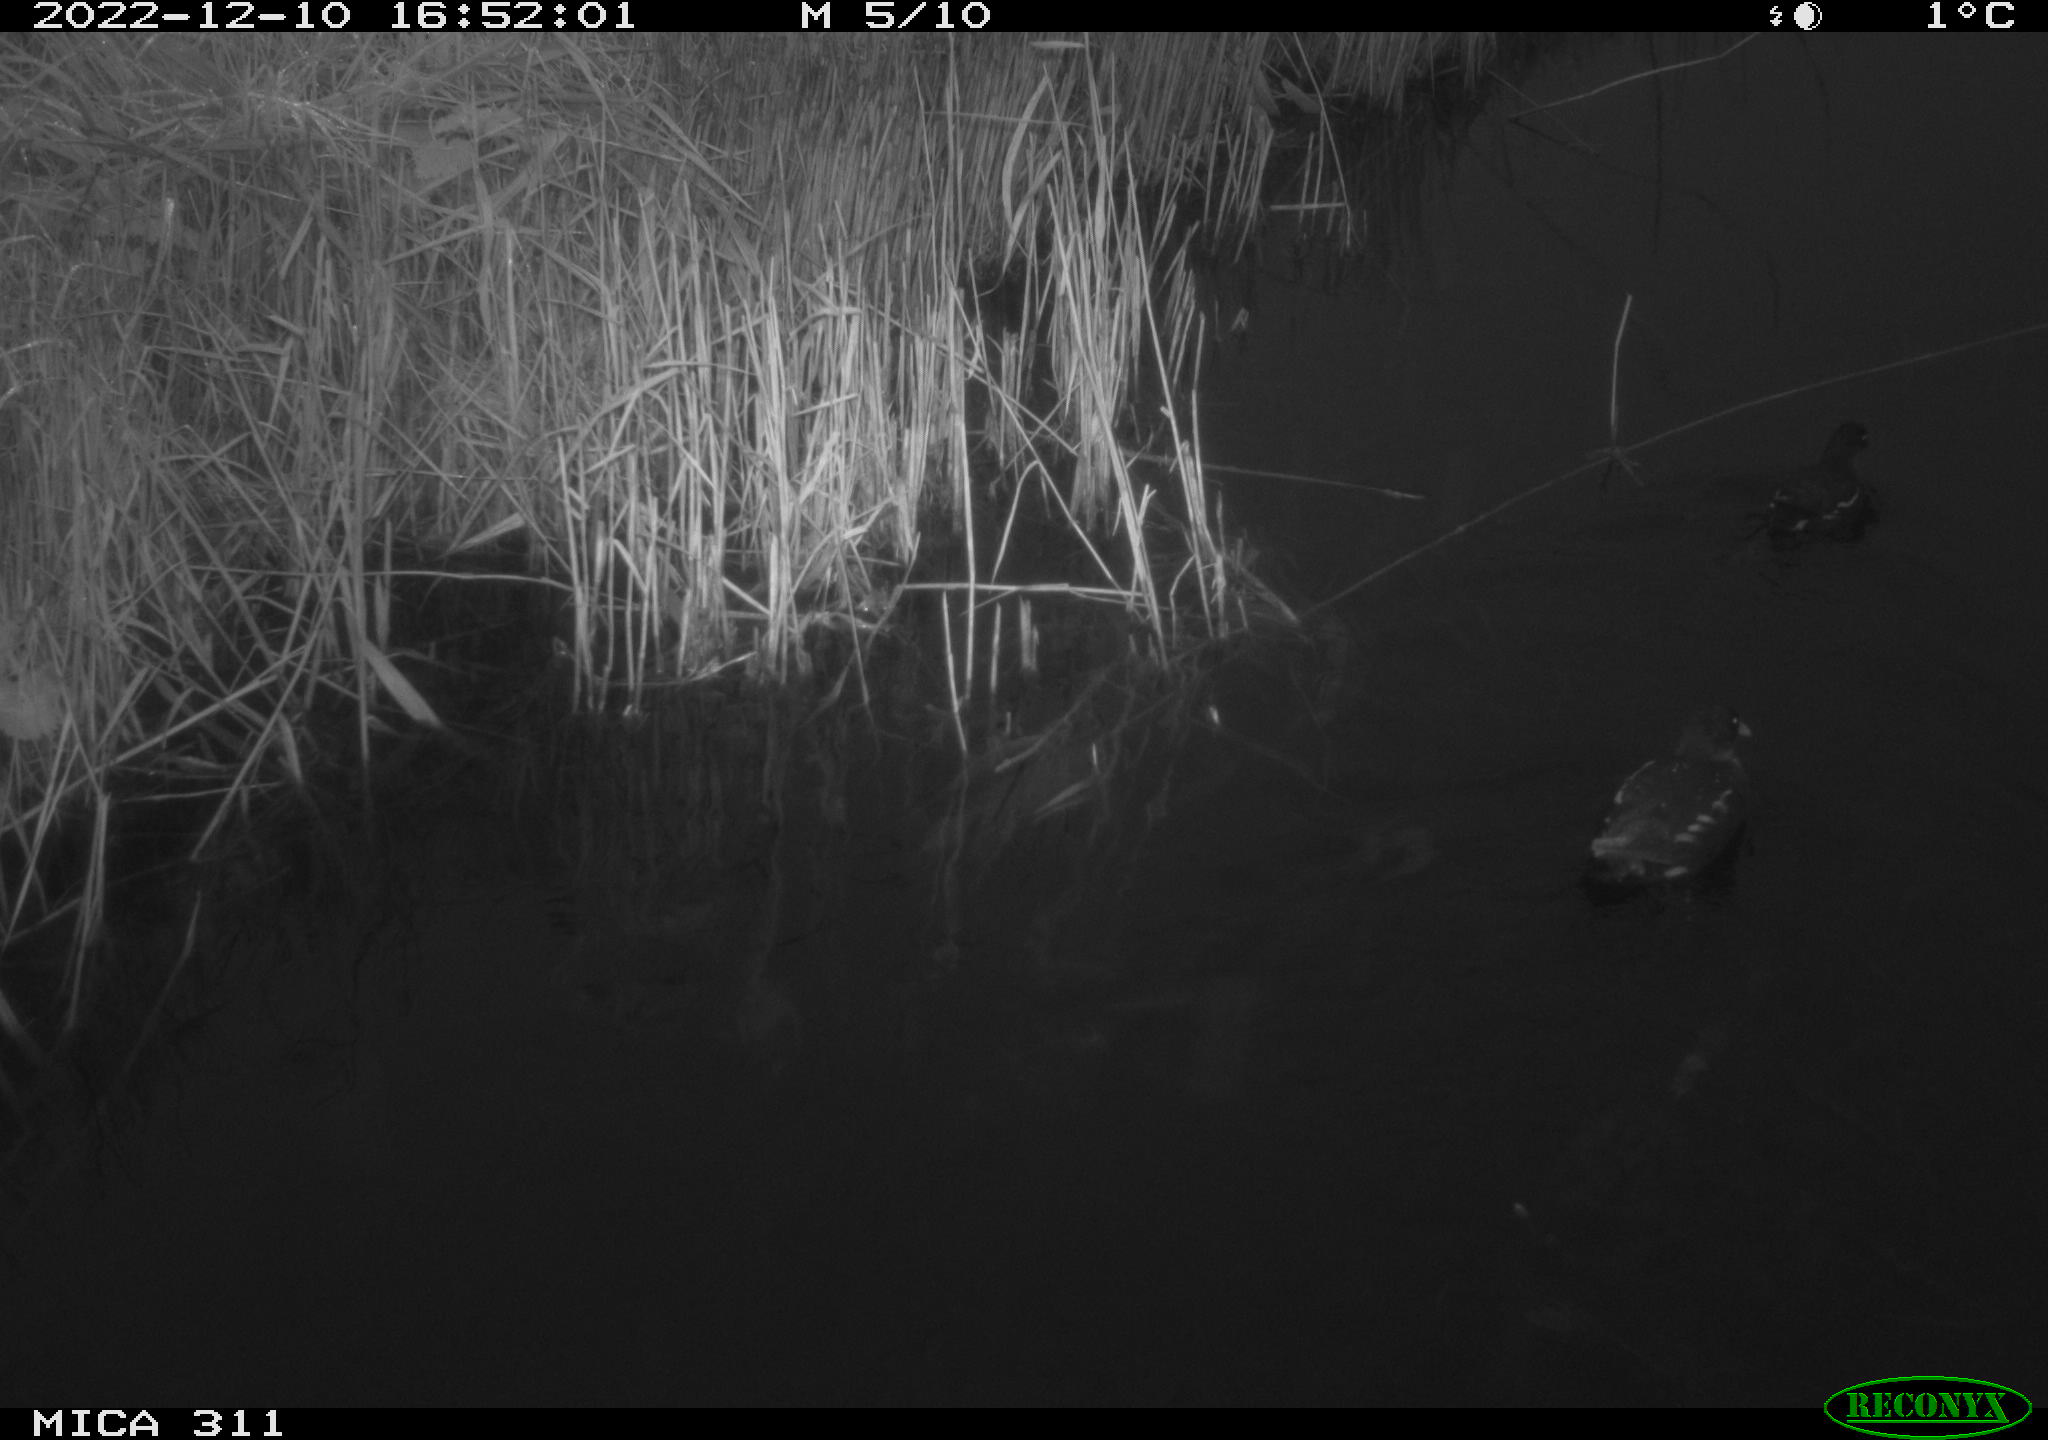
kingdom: Animalia
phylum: Chordata
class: Aves
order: Gruiformes
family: Rallidae
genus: Gallinula
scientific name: Gallinula chloropus
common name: Common moorhen
